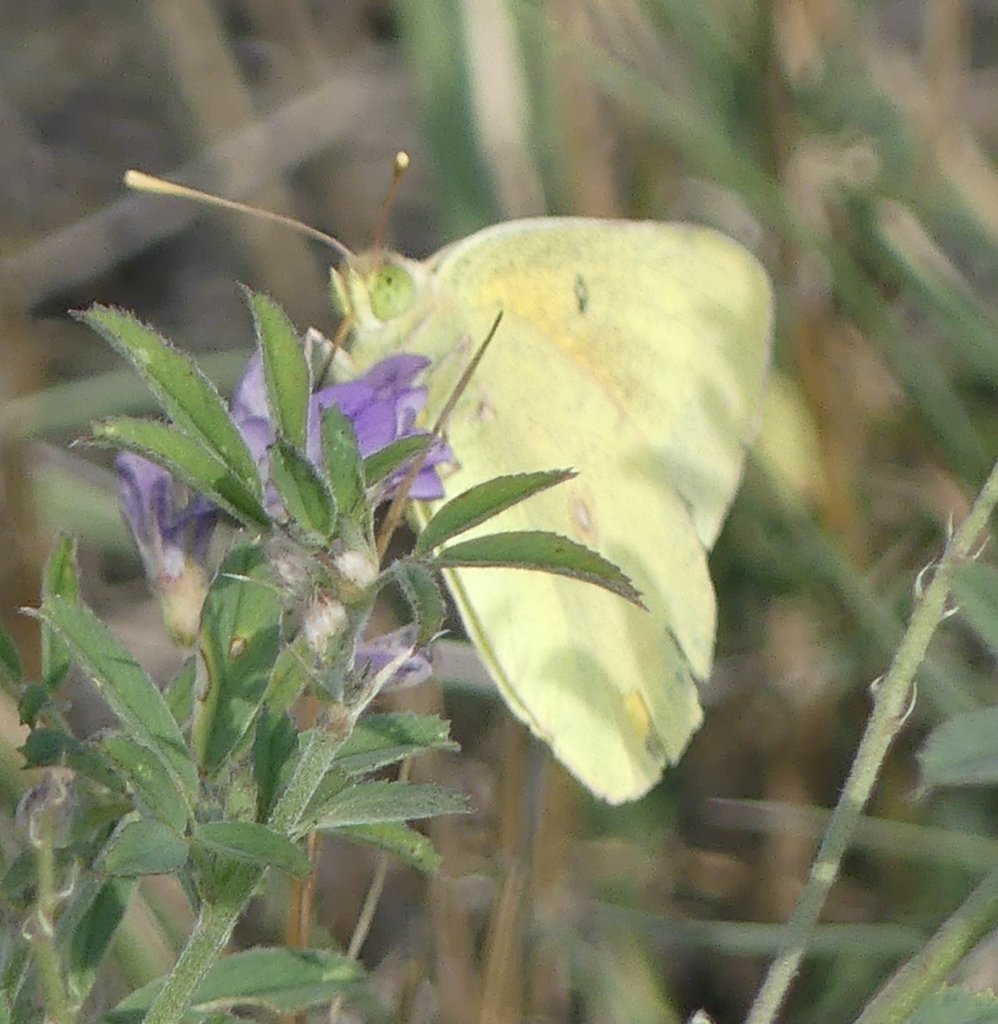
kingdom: Animalia
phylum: Arthropoda
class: Insecta
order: Lepidoptera
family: Pieridae
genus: Colias
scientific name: Colias eurytheme
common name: Orange Sulphur
